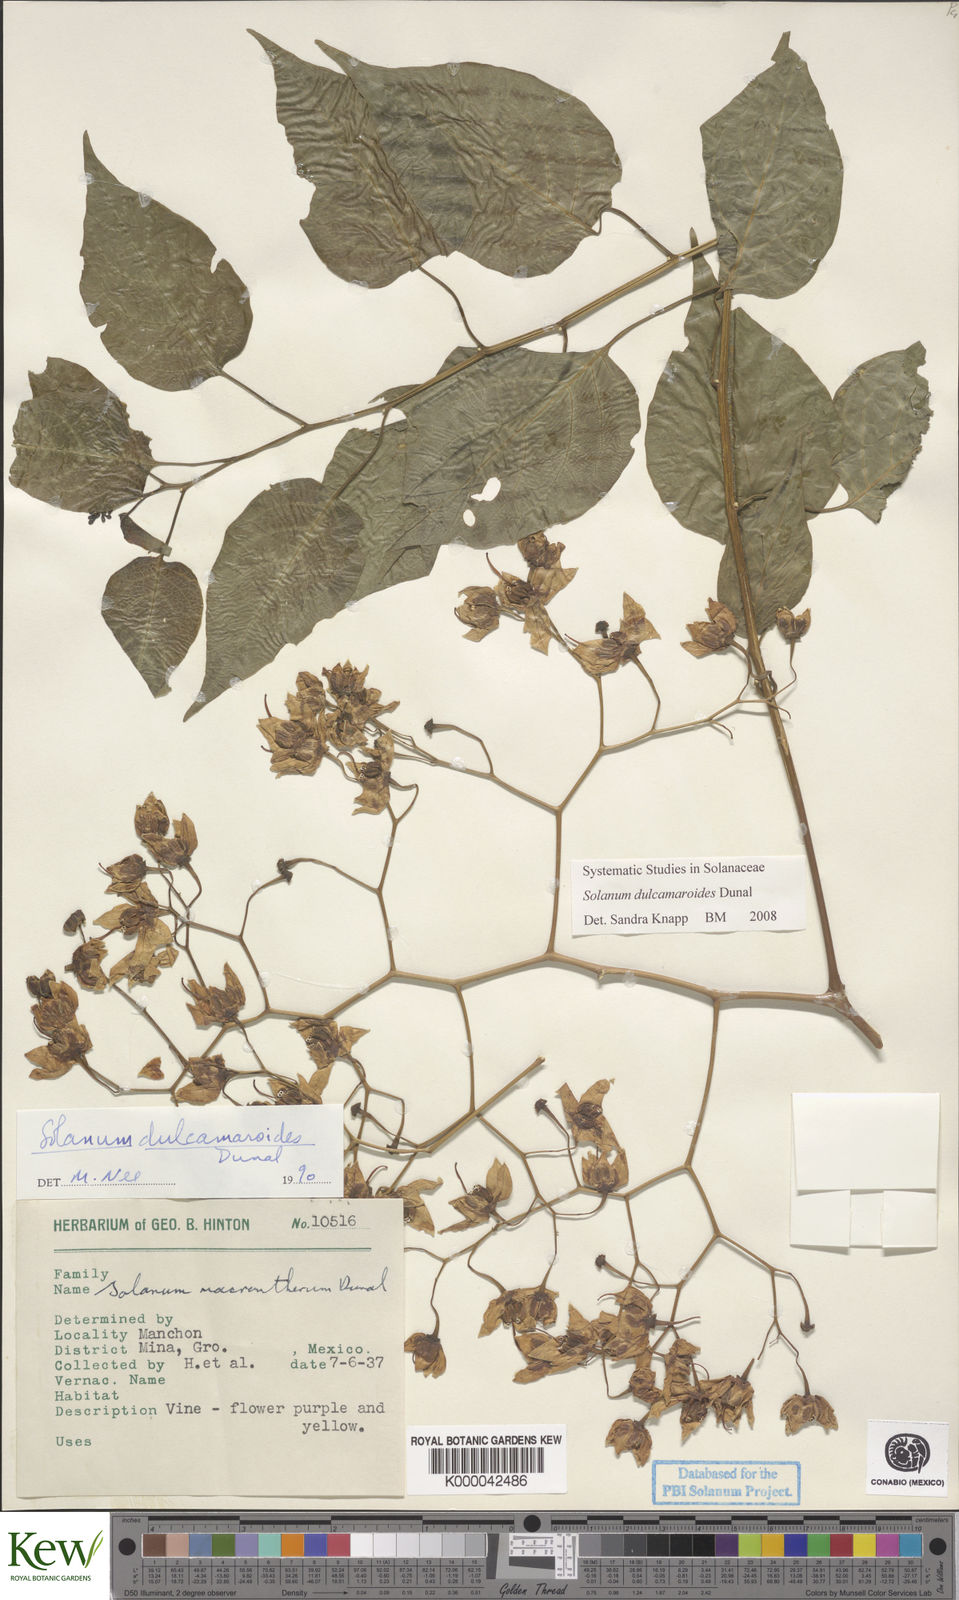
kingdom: Plantae
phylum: Tracheophyta
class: Magnoliopsida
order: Solanales
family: Solanaceae
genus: Solanum
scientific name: Solanum dulcamaroides
